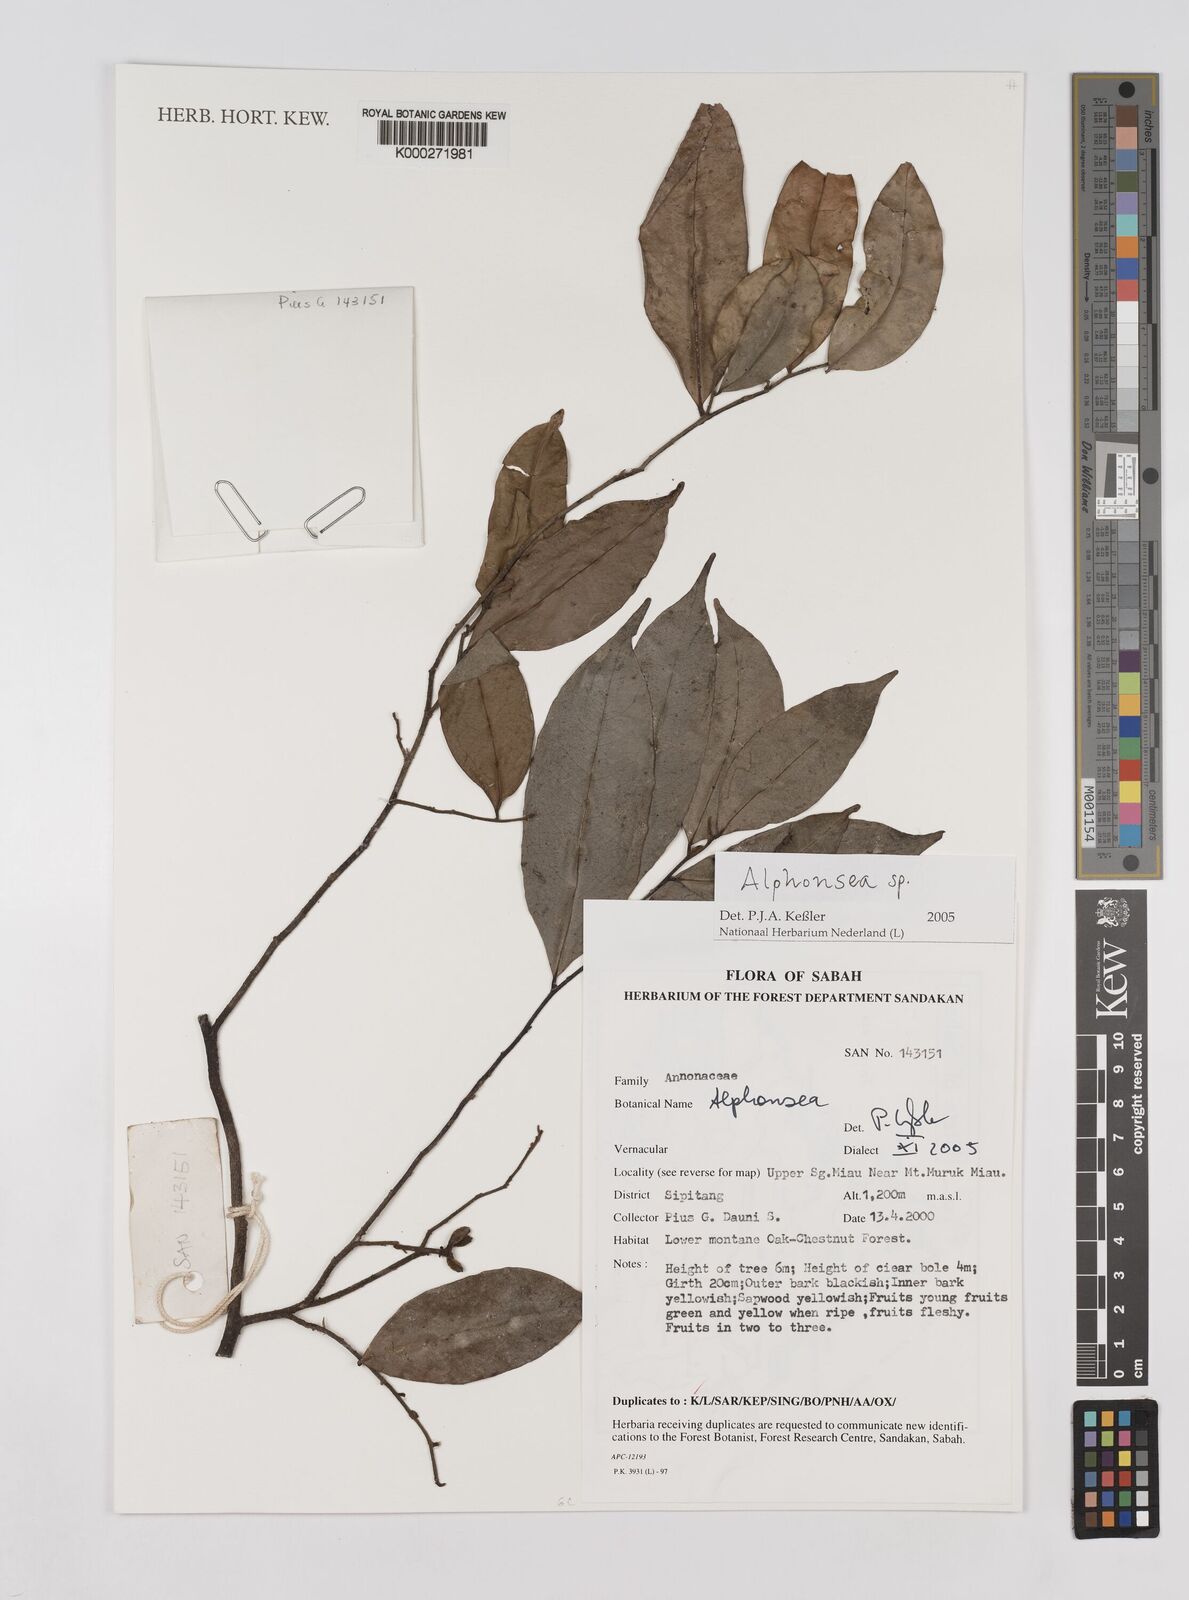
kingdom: Plantae
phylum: Tracheophyta
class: Magnoliopsida
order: Magnoliales
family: Annonaceae
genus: Alphonsea
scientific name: Alphonsea
